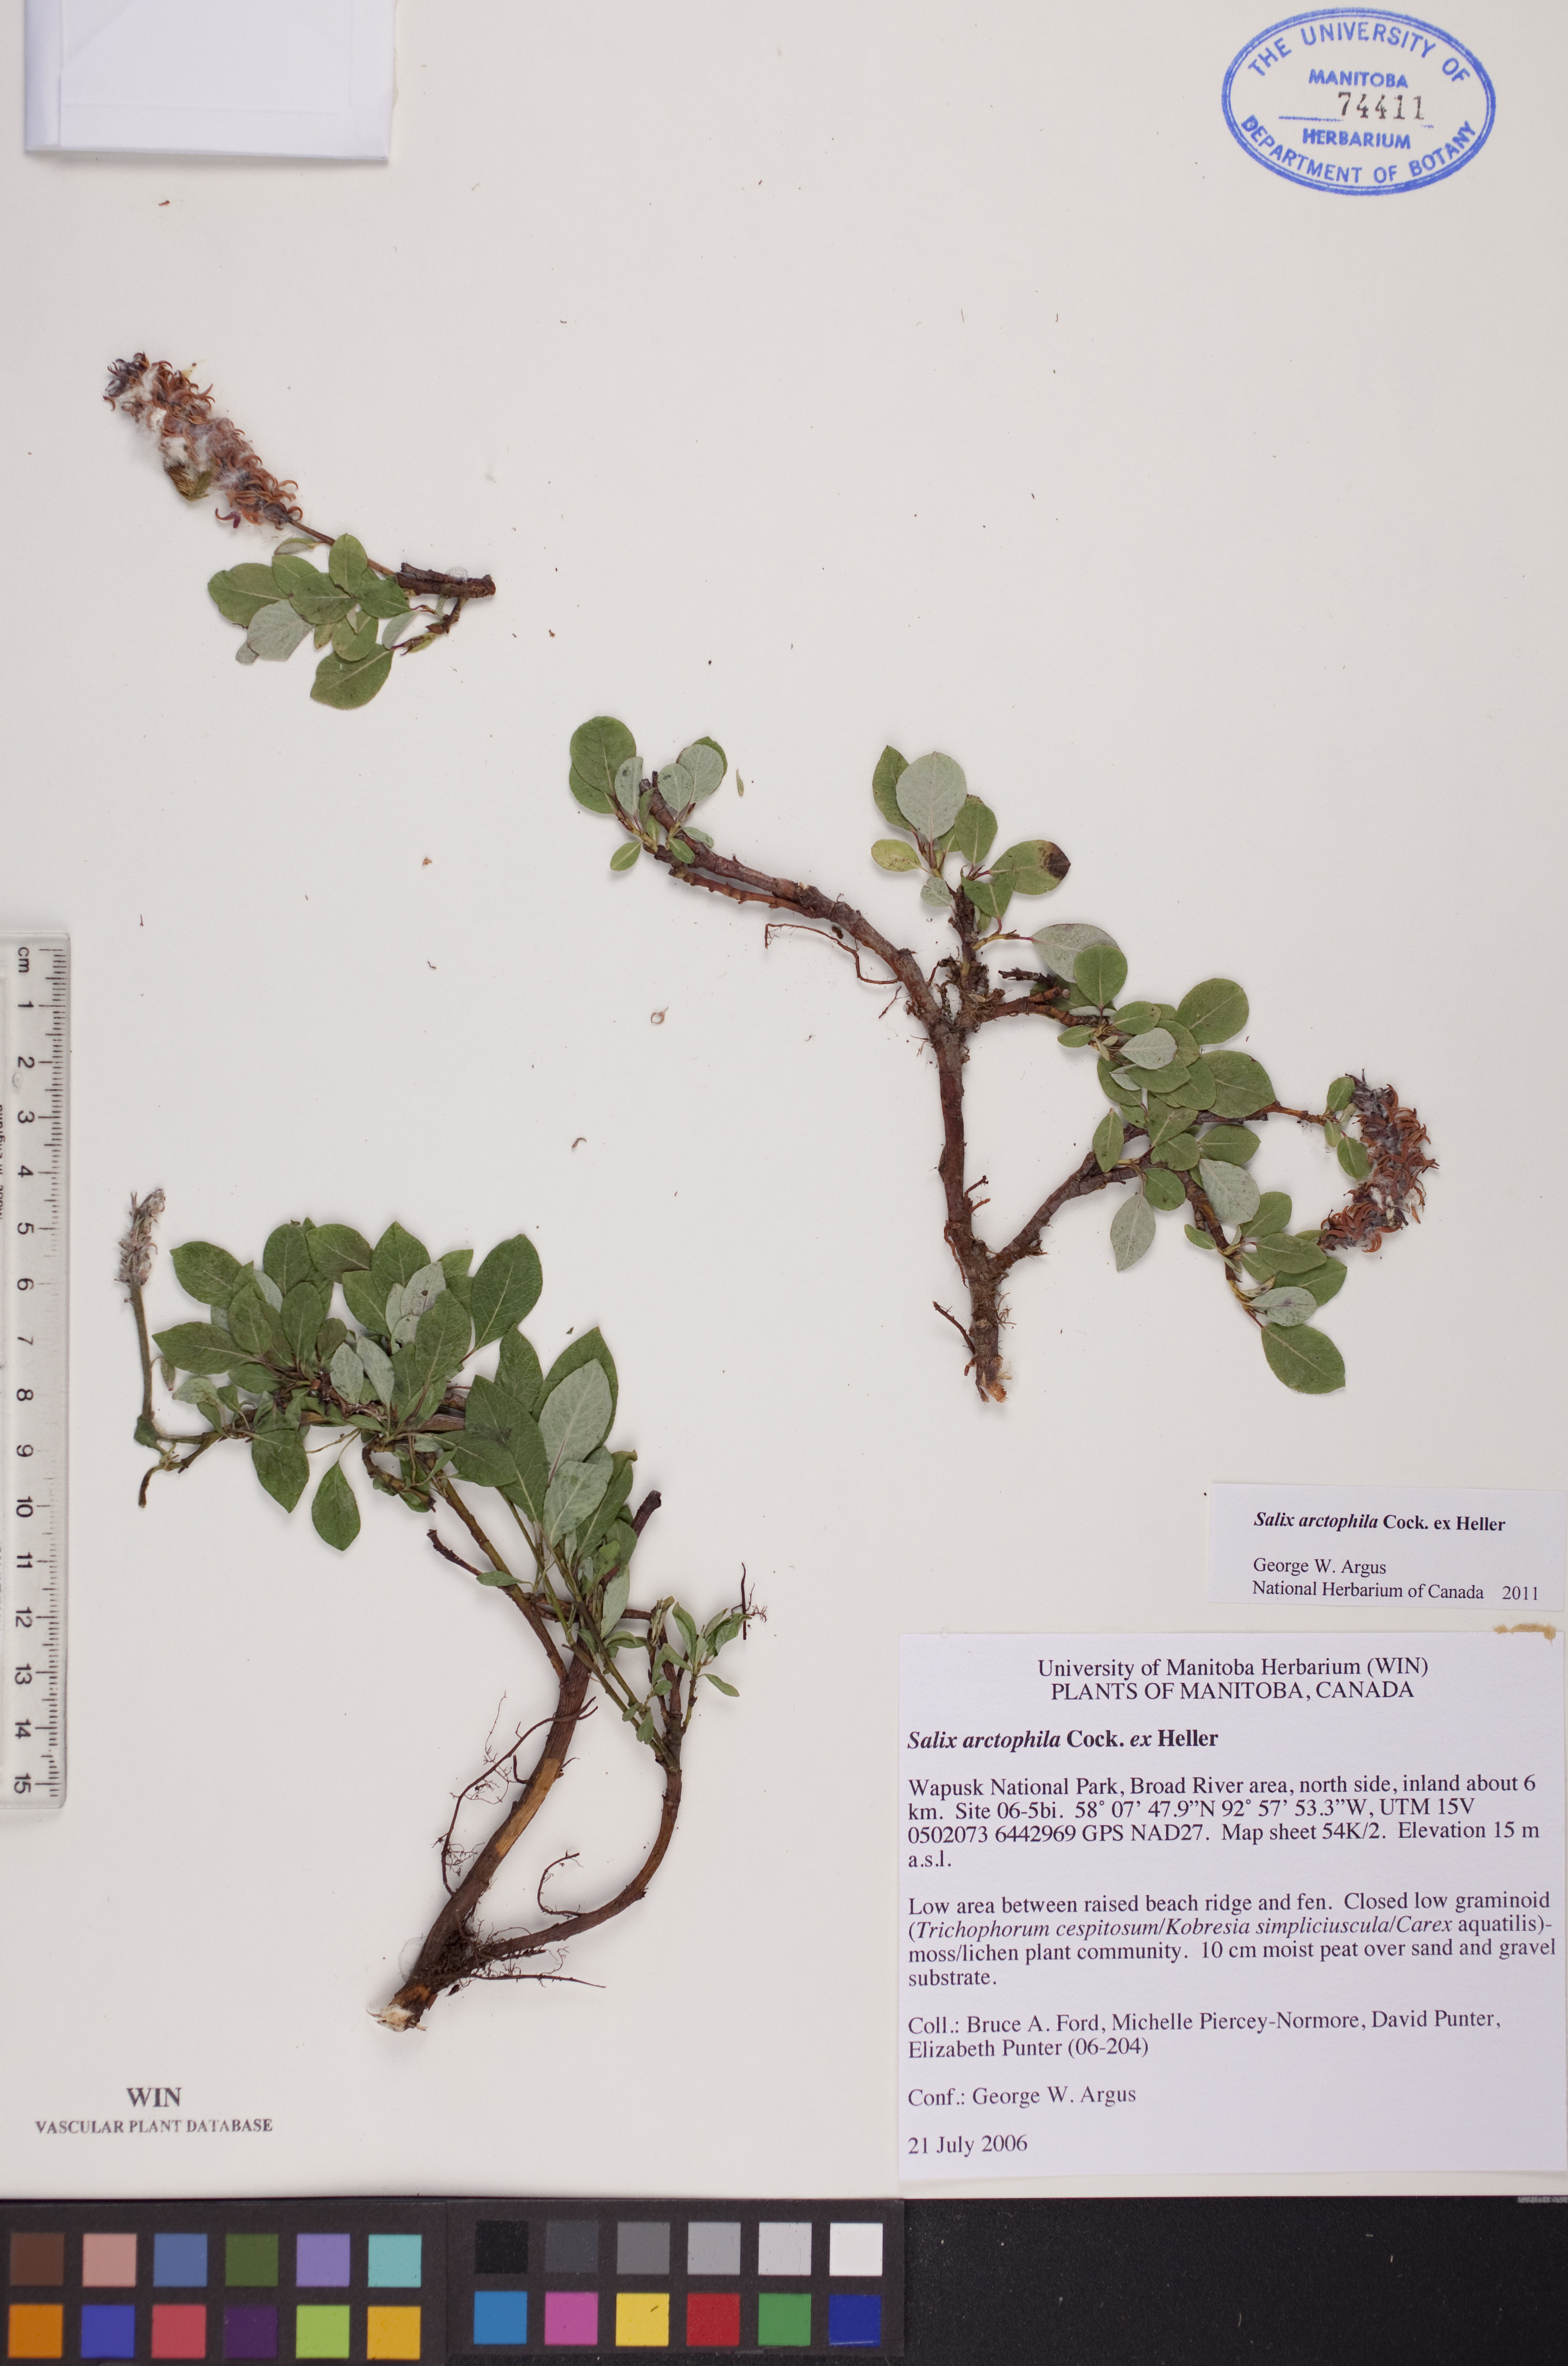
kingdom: Plantae
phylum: Tracheophyta
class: Magnoliopsida
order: Malpighiales
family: Salicaceae
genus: Salix
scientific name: Salix arctophila
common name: Greenland willow
